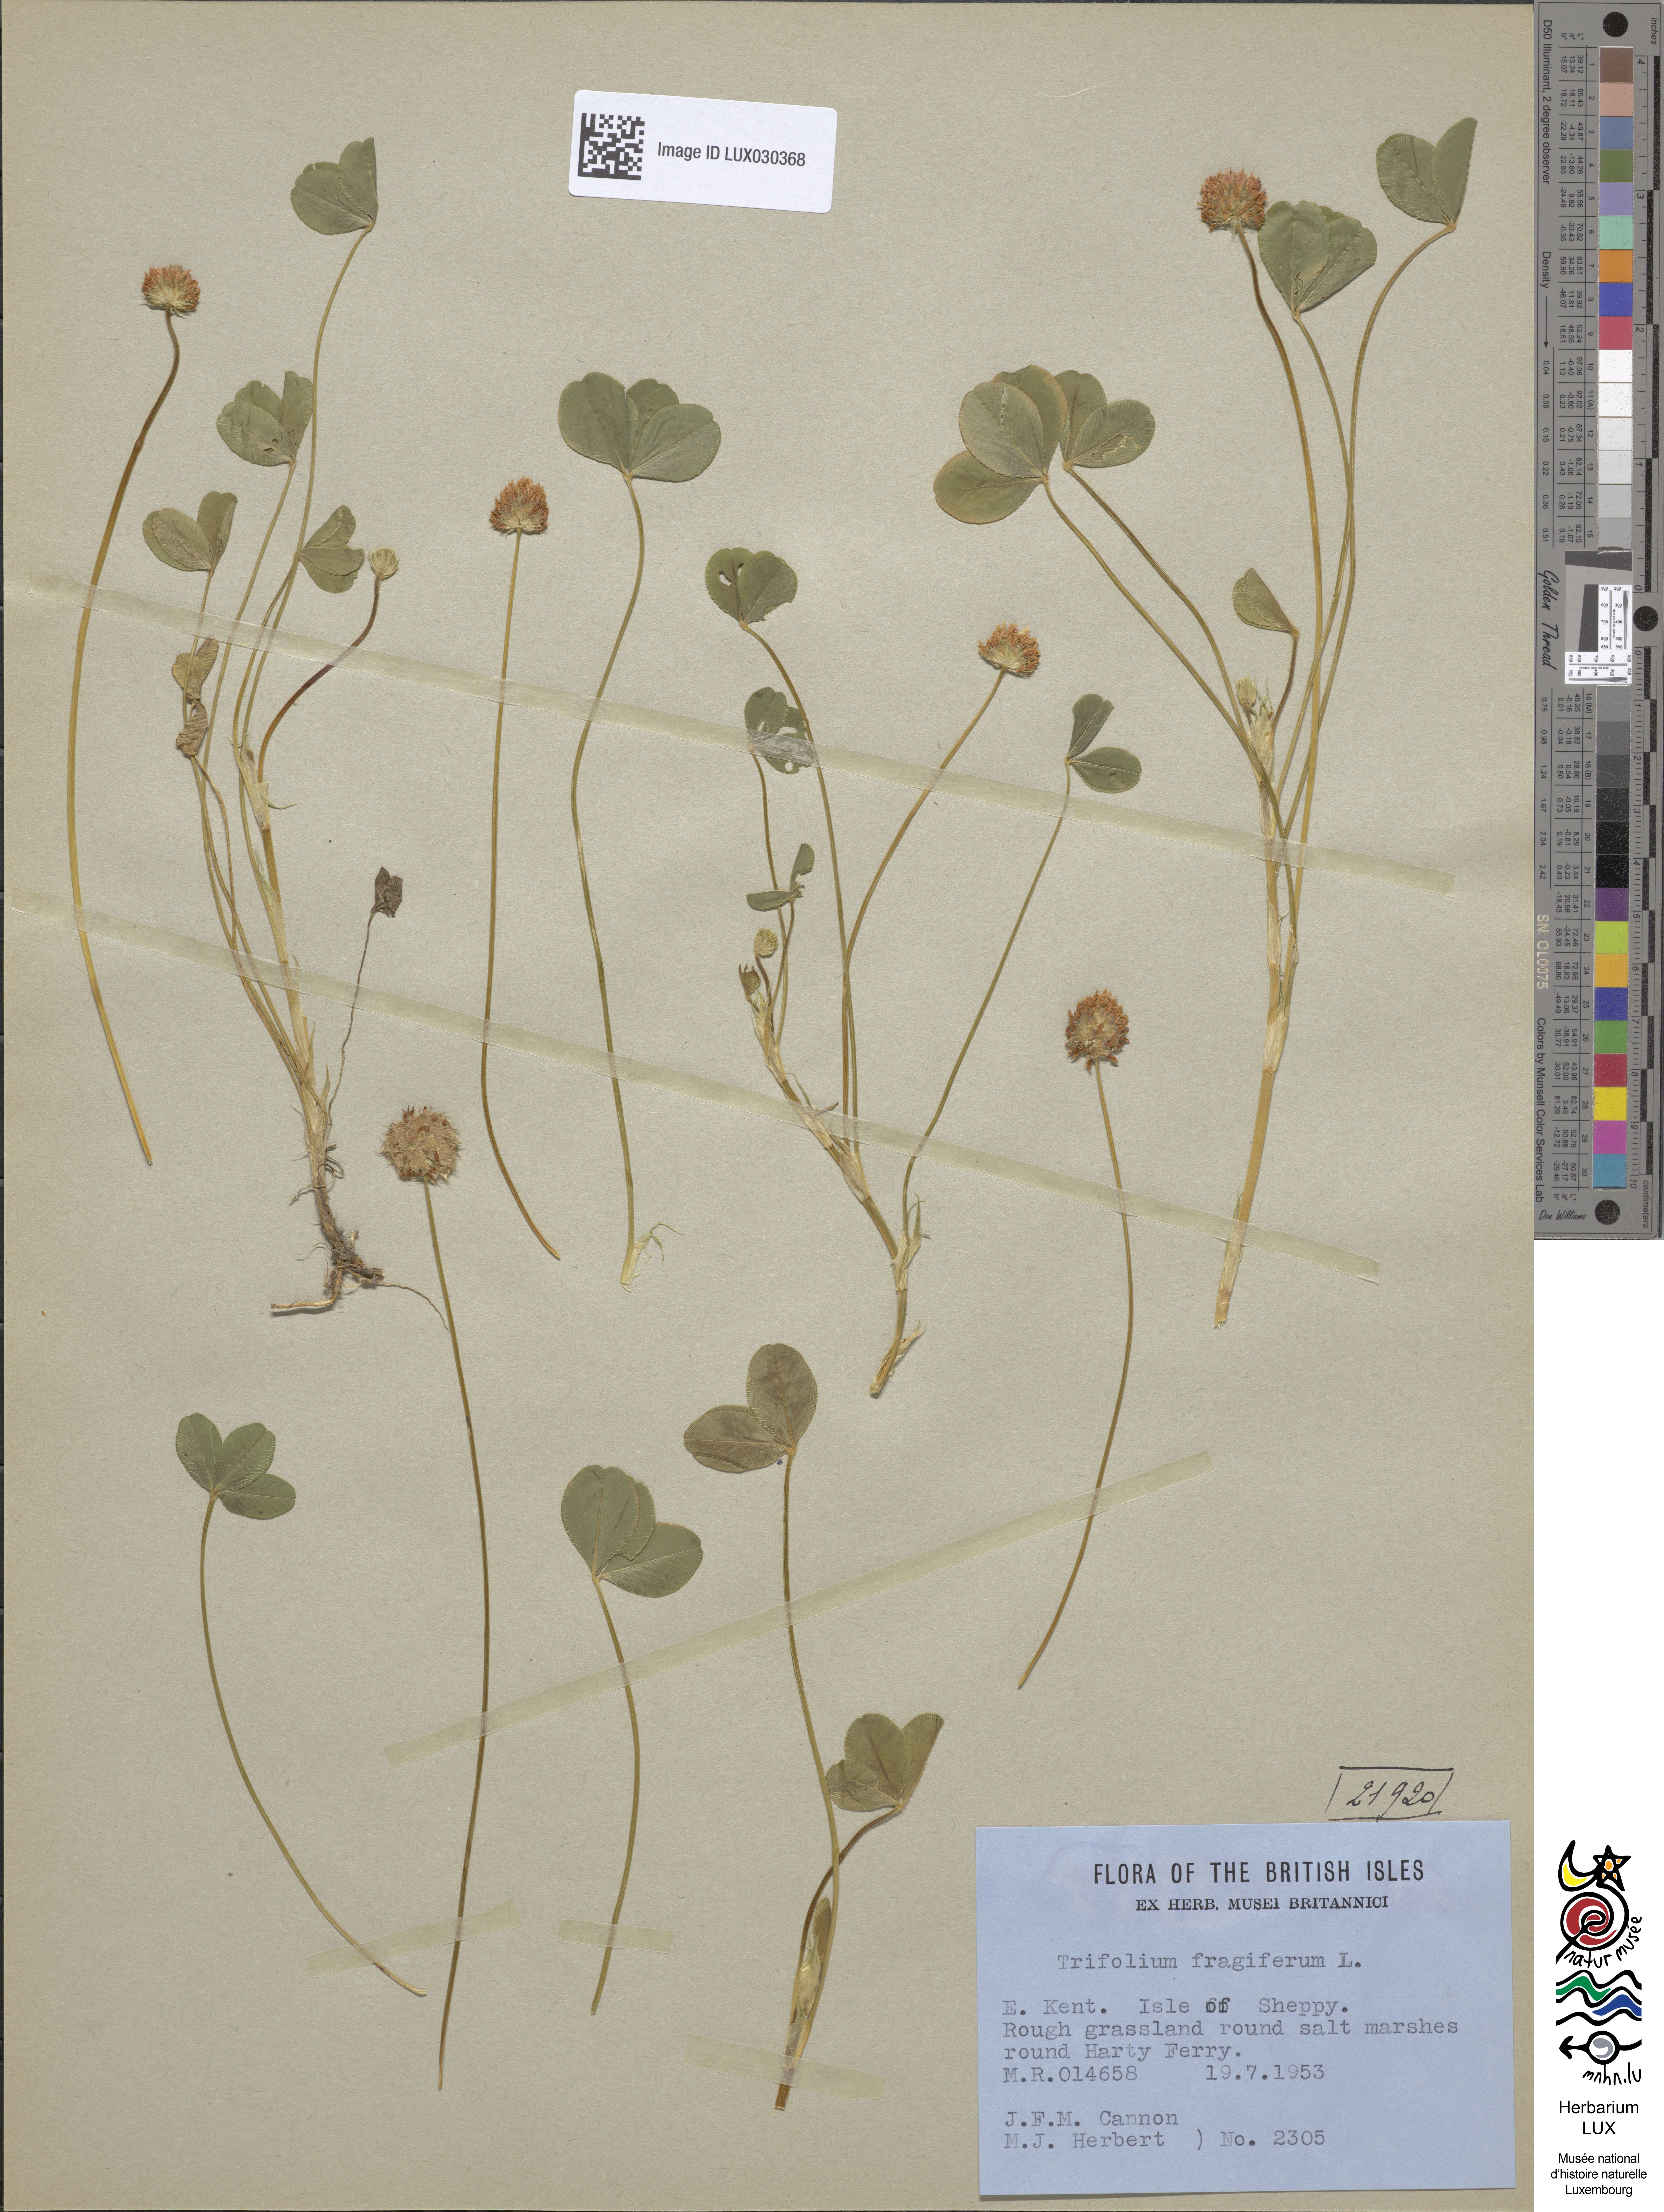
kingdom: Plantae
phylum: Tracheophyta
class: Magnoliopsida
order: Fabales
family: Fabaceae
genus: Trifolium
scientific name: Trifolium fragiferum
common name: Strawberry clover
